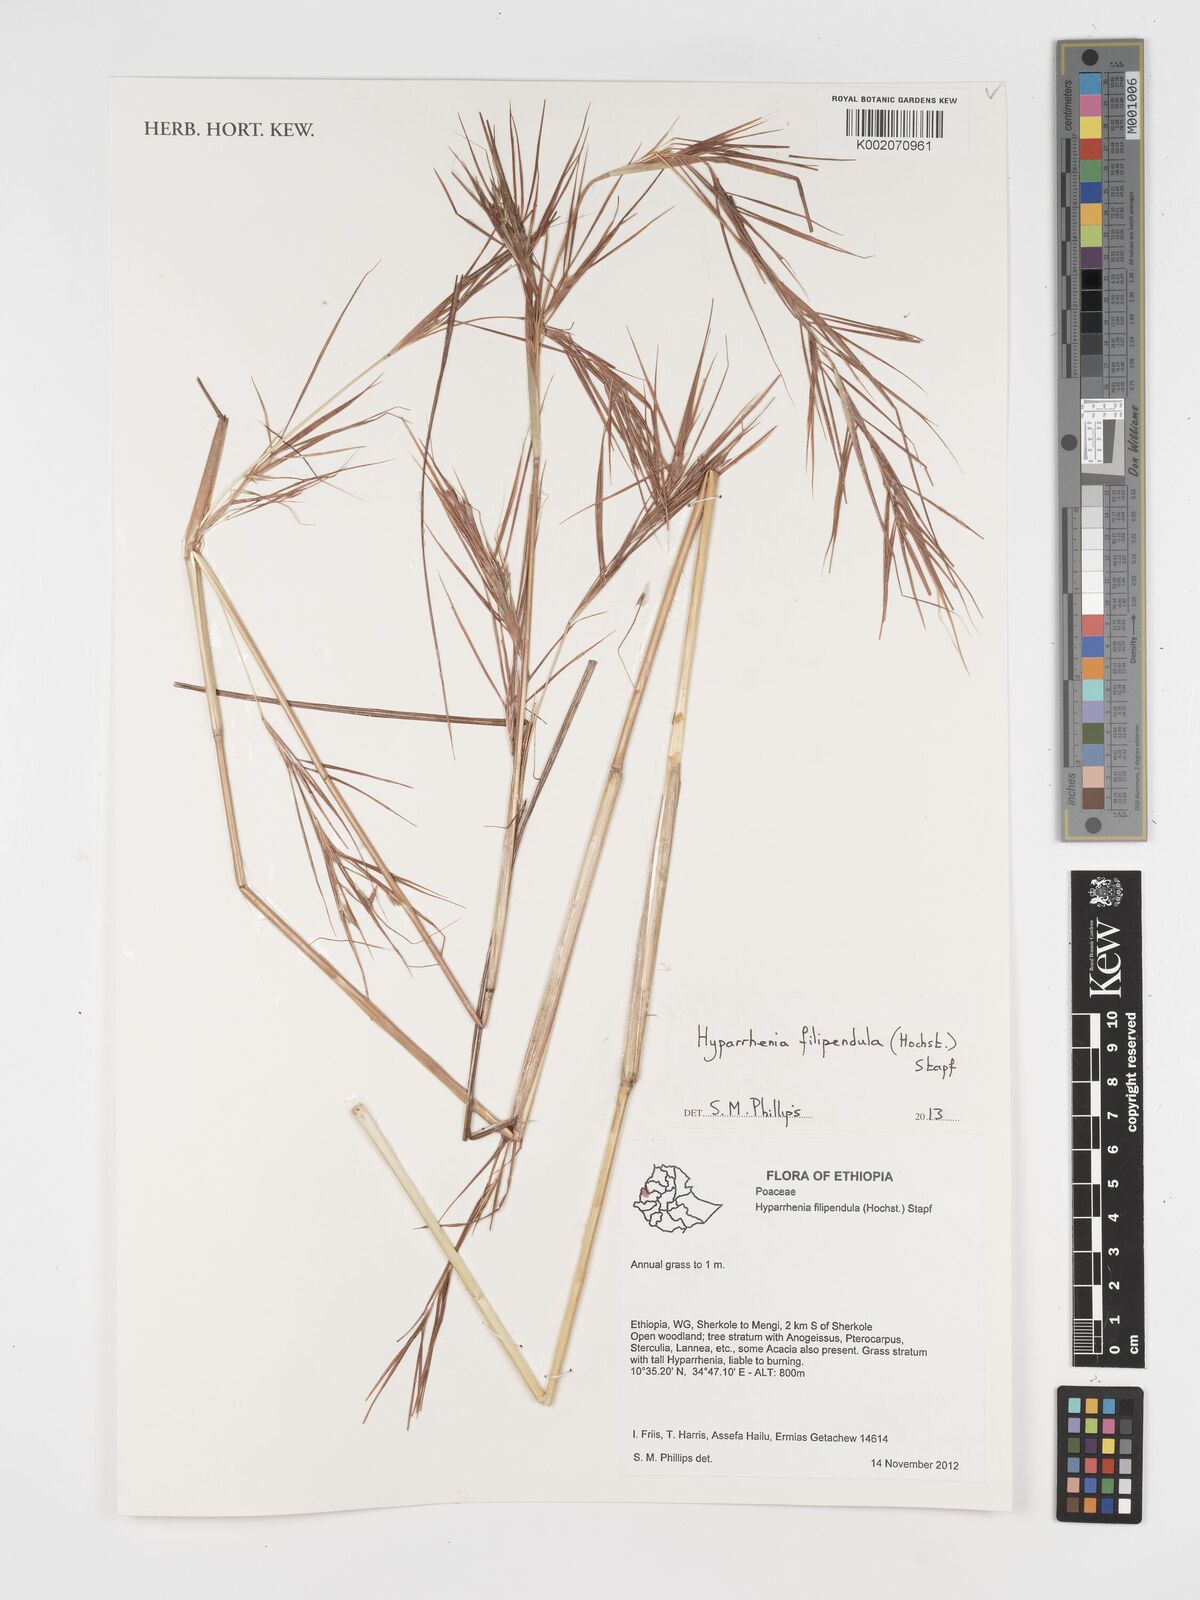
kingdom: Plantae
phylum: Tracheophyta
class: Liliopsida
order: Poales
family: Poaceae
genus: Hyparrhenia
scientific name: Hyparrhenia filipendula
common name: Tambookie grass
